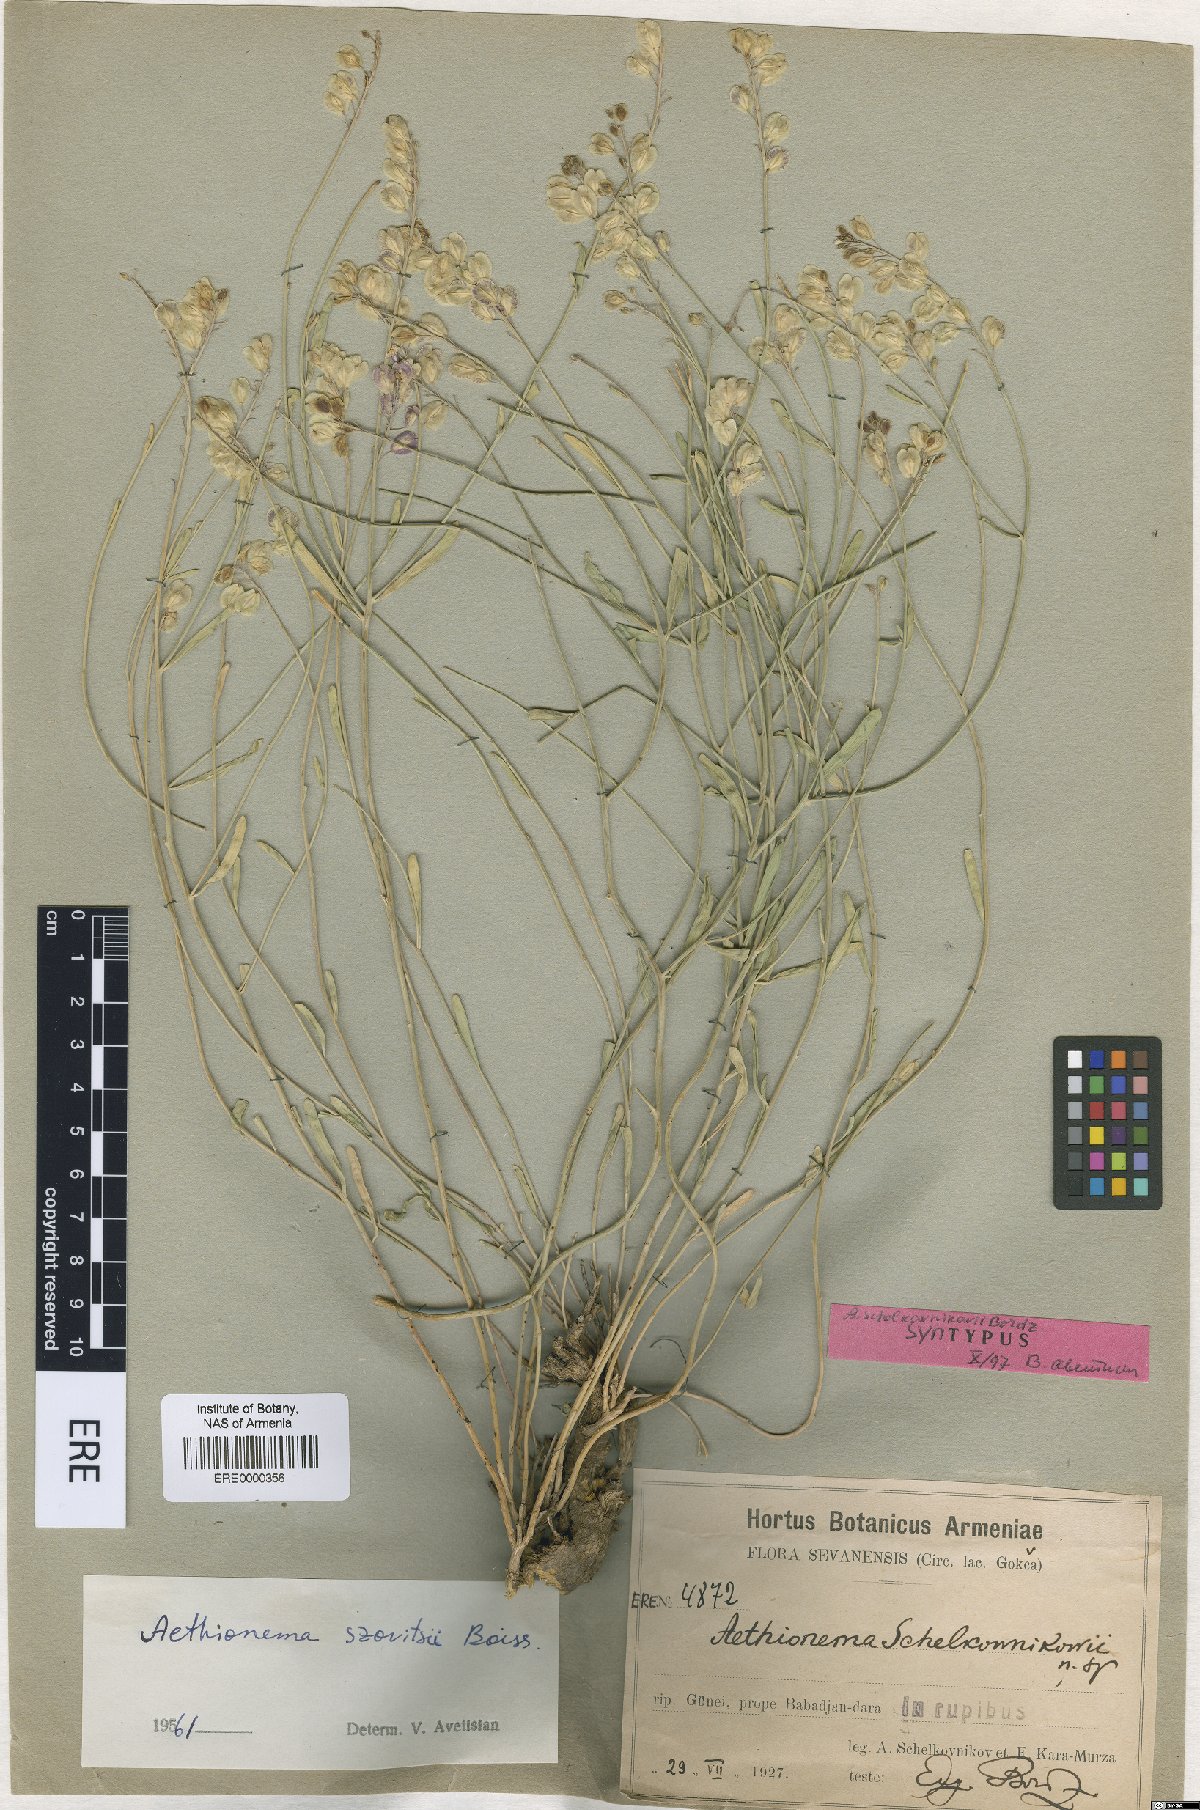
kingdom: Plantae
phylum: Tracheophyta
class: Magnoliopsida
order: Brassicales
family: Brassicaceae
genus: Aethionema
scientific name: Aethionema virgatum
